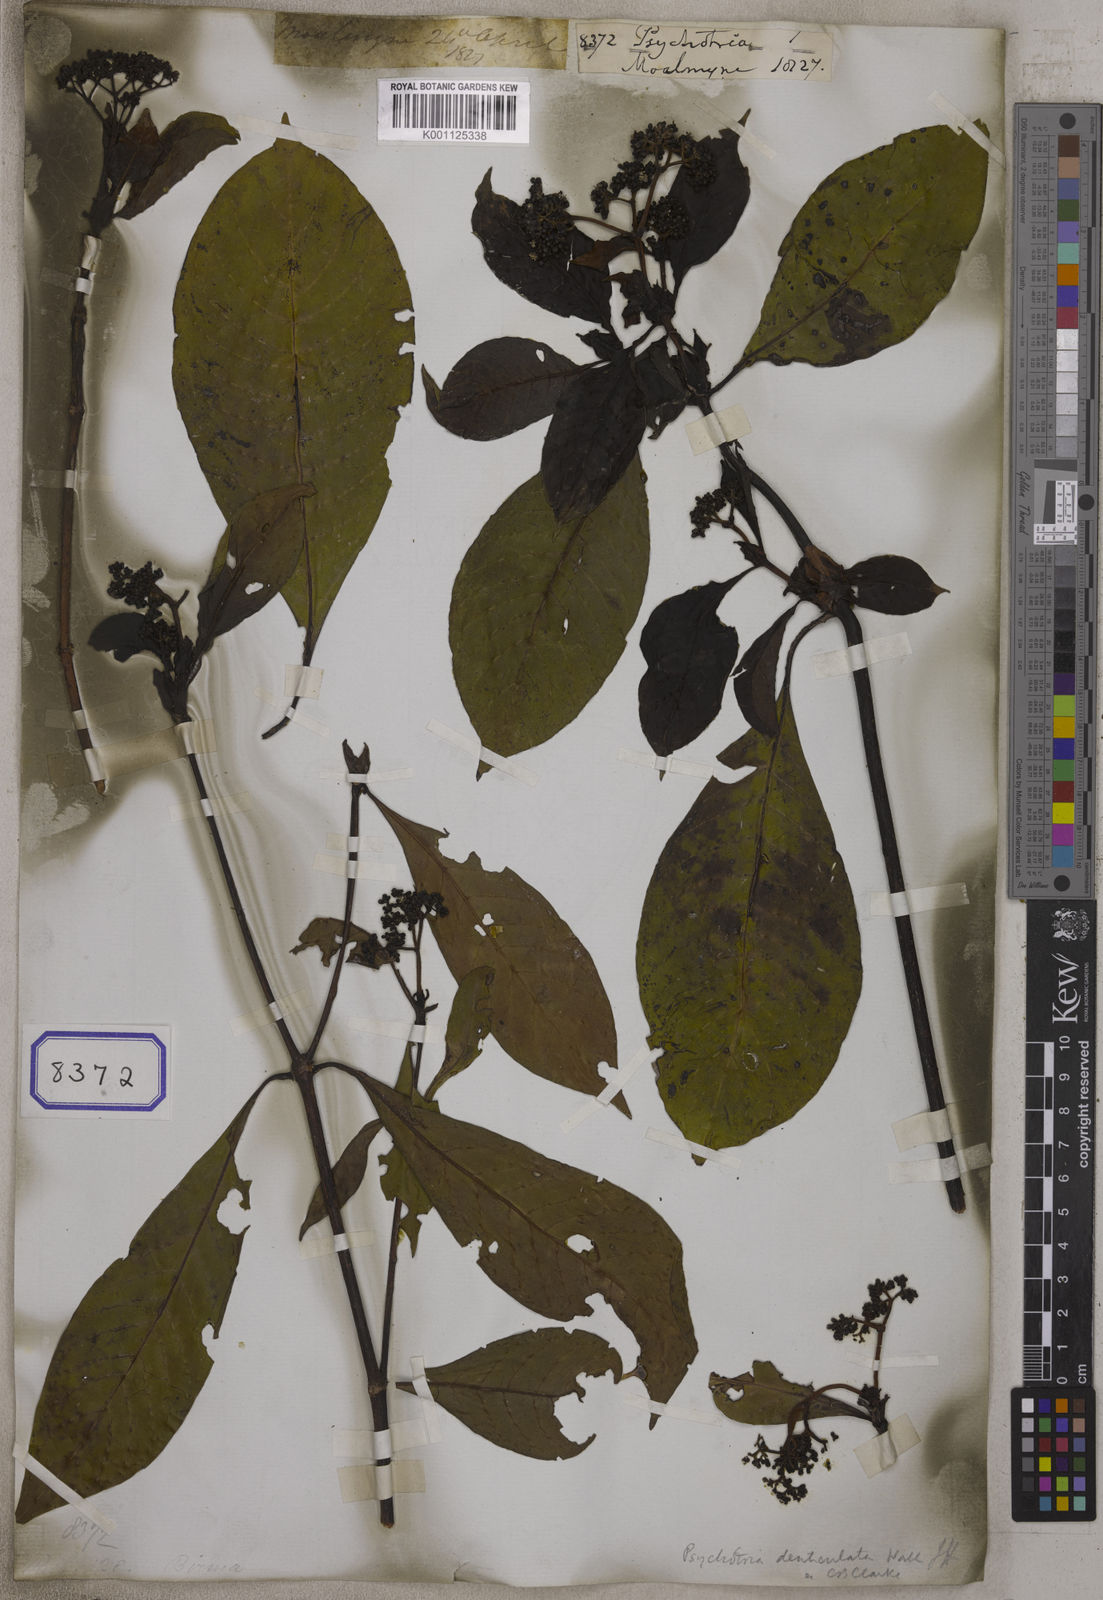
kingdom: Plantae
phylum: Tracheophyta
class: Magnoliopsida
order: Gentianales
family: Rubiaceae
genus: Psychotria
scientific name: Psychotria
